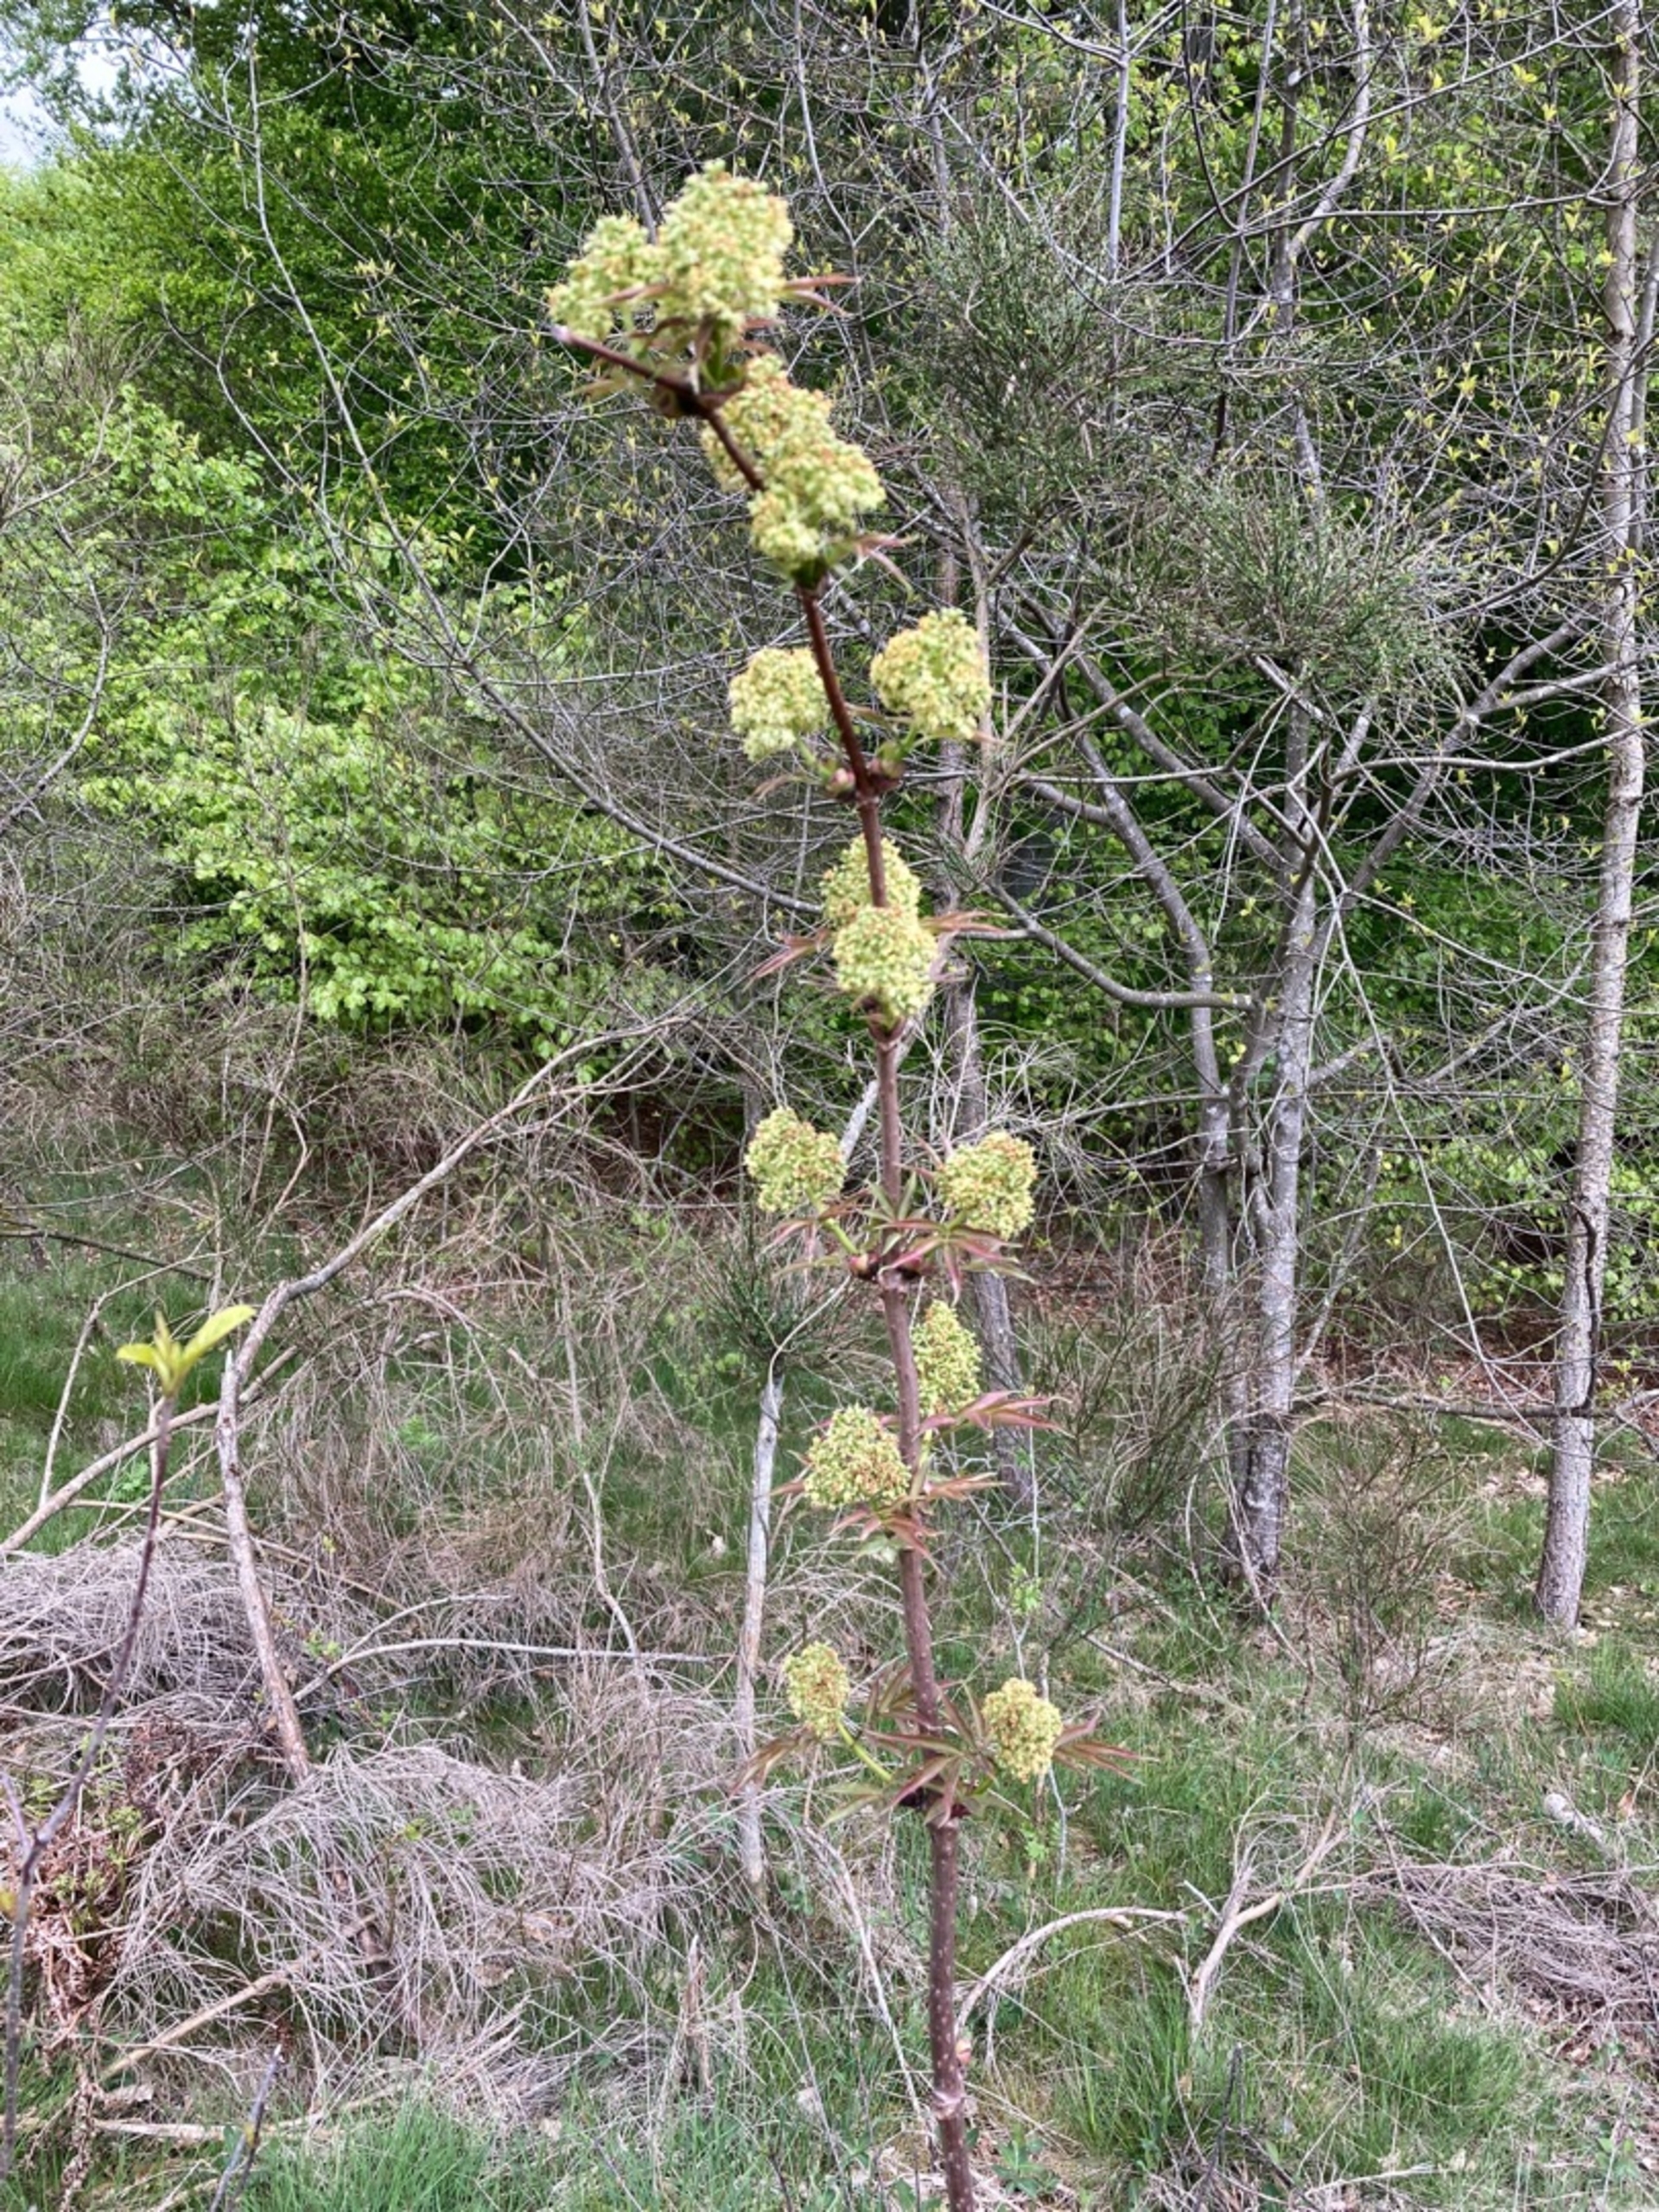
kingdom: Plantae
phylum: Tracheophyta
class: Magnoliopsida
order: Dipsacales
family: Viburnaceae
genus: Sambucus
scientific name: Sambucus racemosa
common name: Drue-hyld
